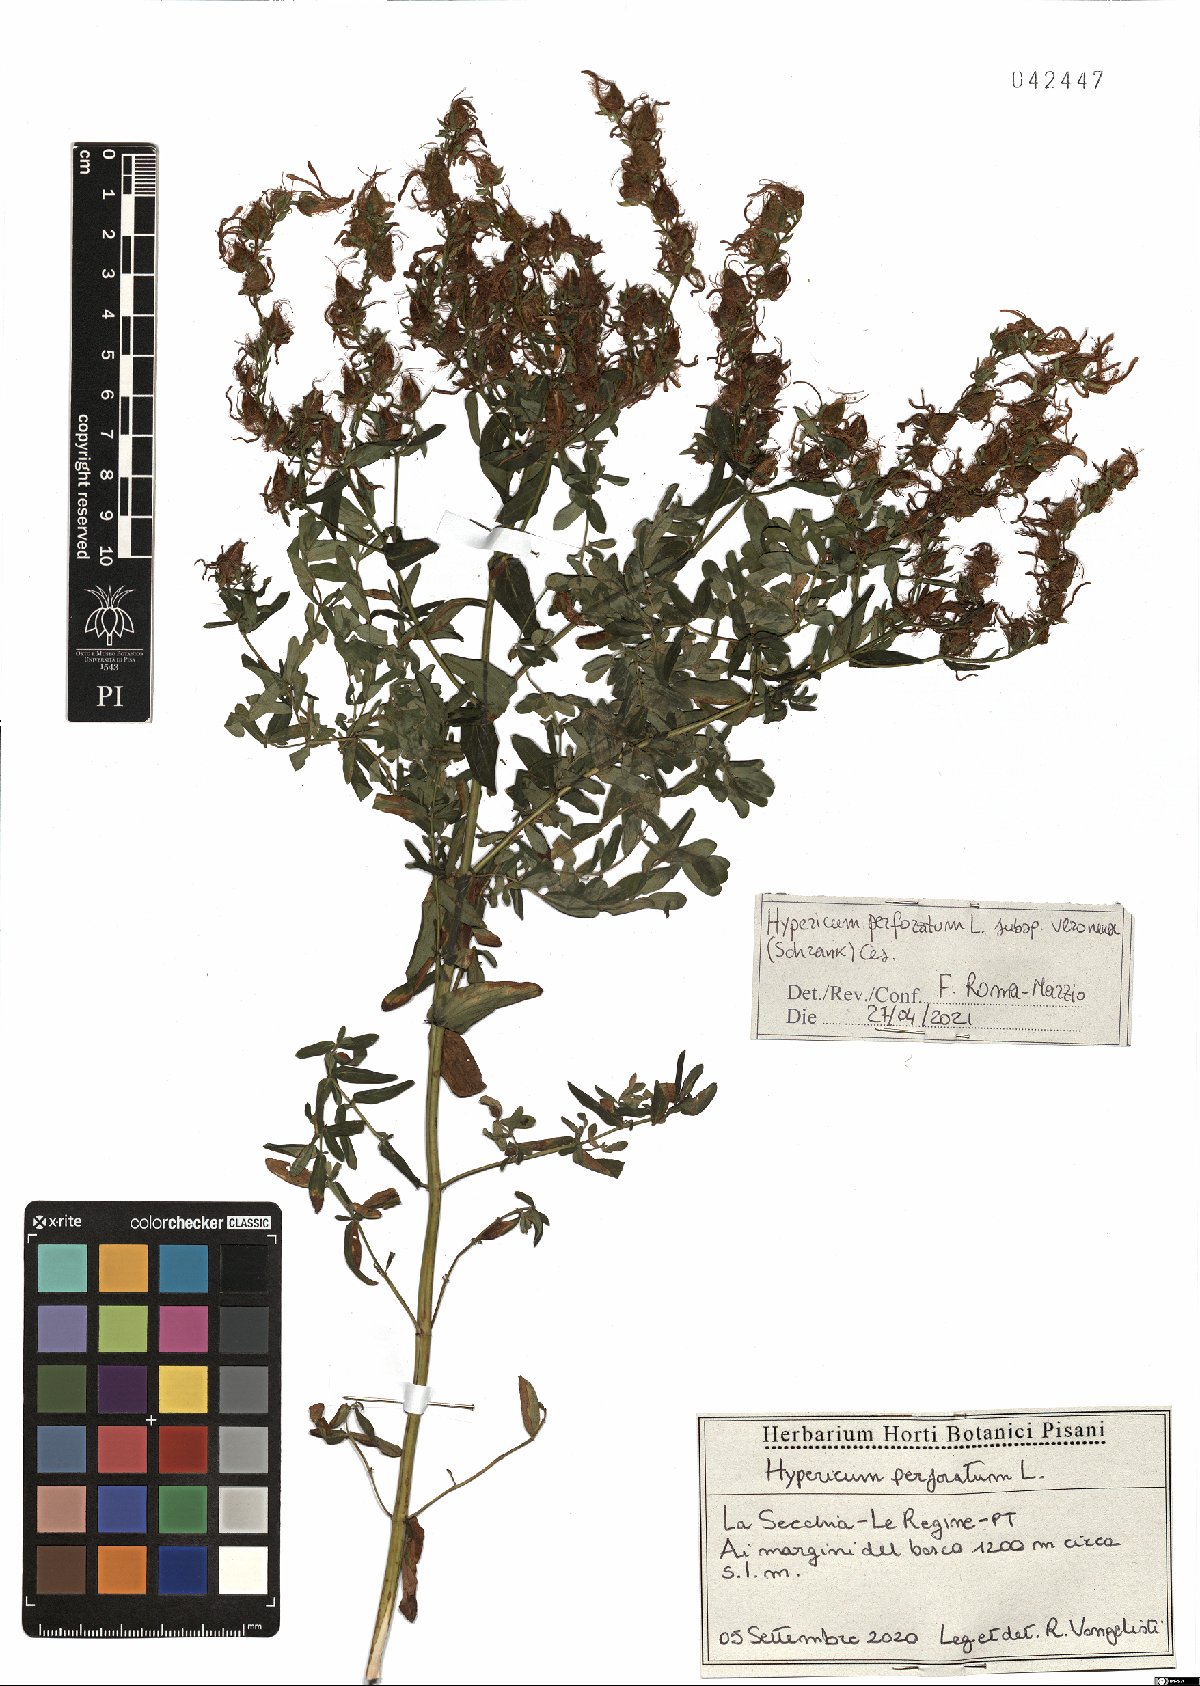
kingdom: Plantae
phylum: Tracheophyta
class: Magnoliopsida
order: Malpighiales
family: Hypericaceae
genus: Hypericum
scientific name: Hypericum veronense
